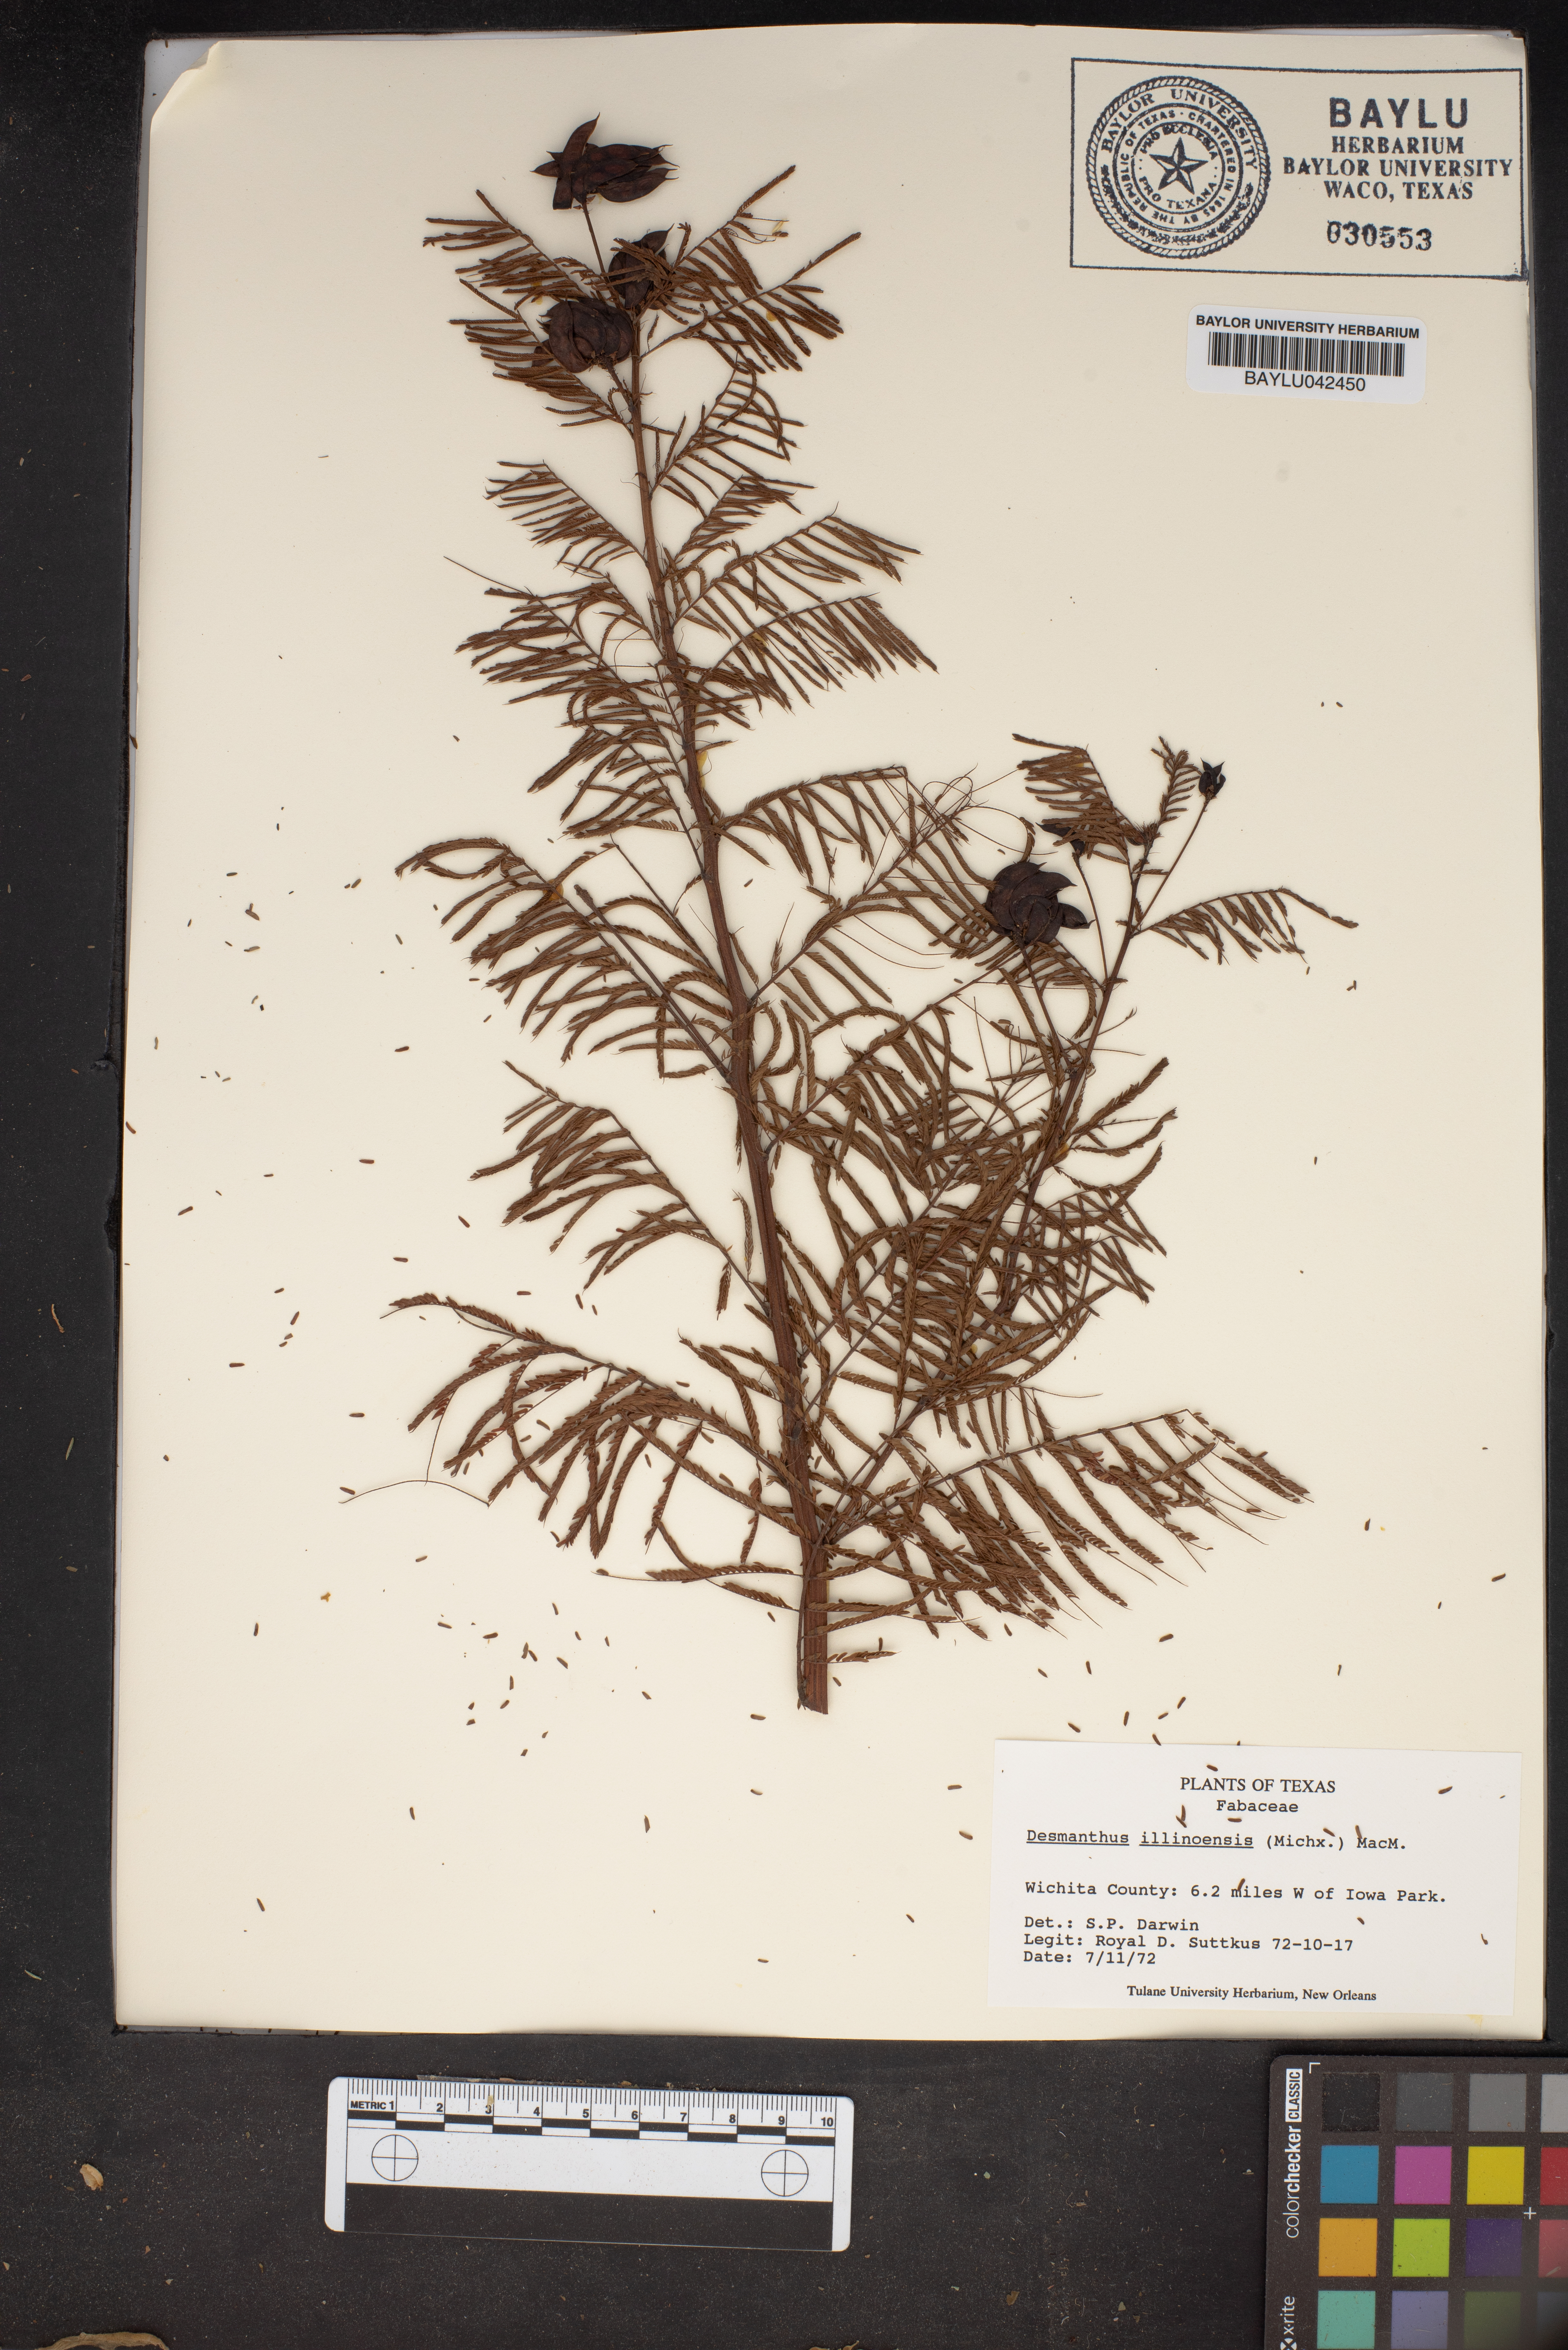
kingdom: Plantae
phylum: Tracheophyta
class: Magnoliopsida
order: Fabales
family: Fabaceae
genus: Desmanthus
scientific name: Desmanthus illinoensis
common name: Illinois bundle-flower
